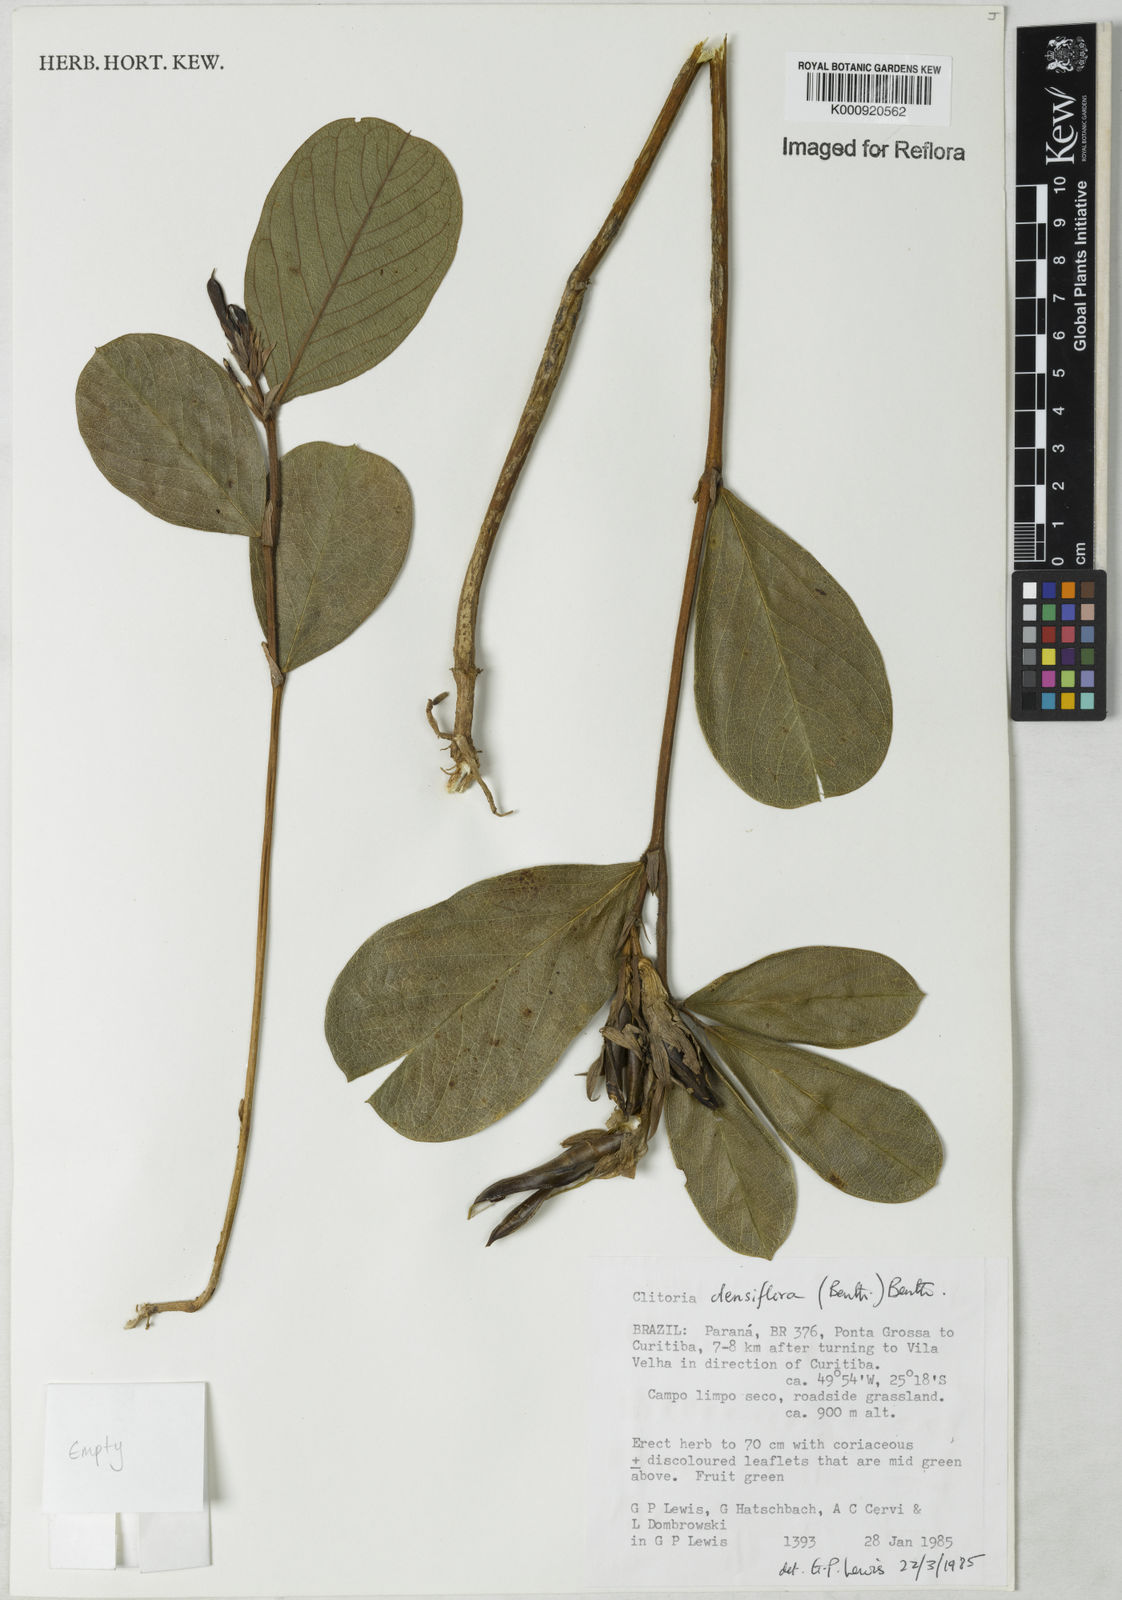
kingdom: Plantae
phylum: Tracheophyta
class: Magnoliopsida
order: Fabales
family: Fabaceae
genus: Clitoria
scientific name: Clitoria
